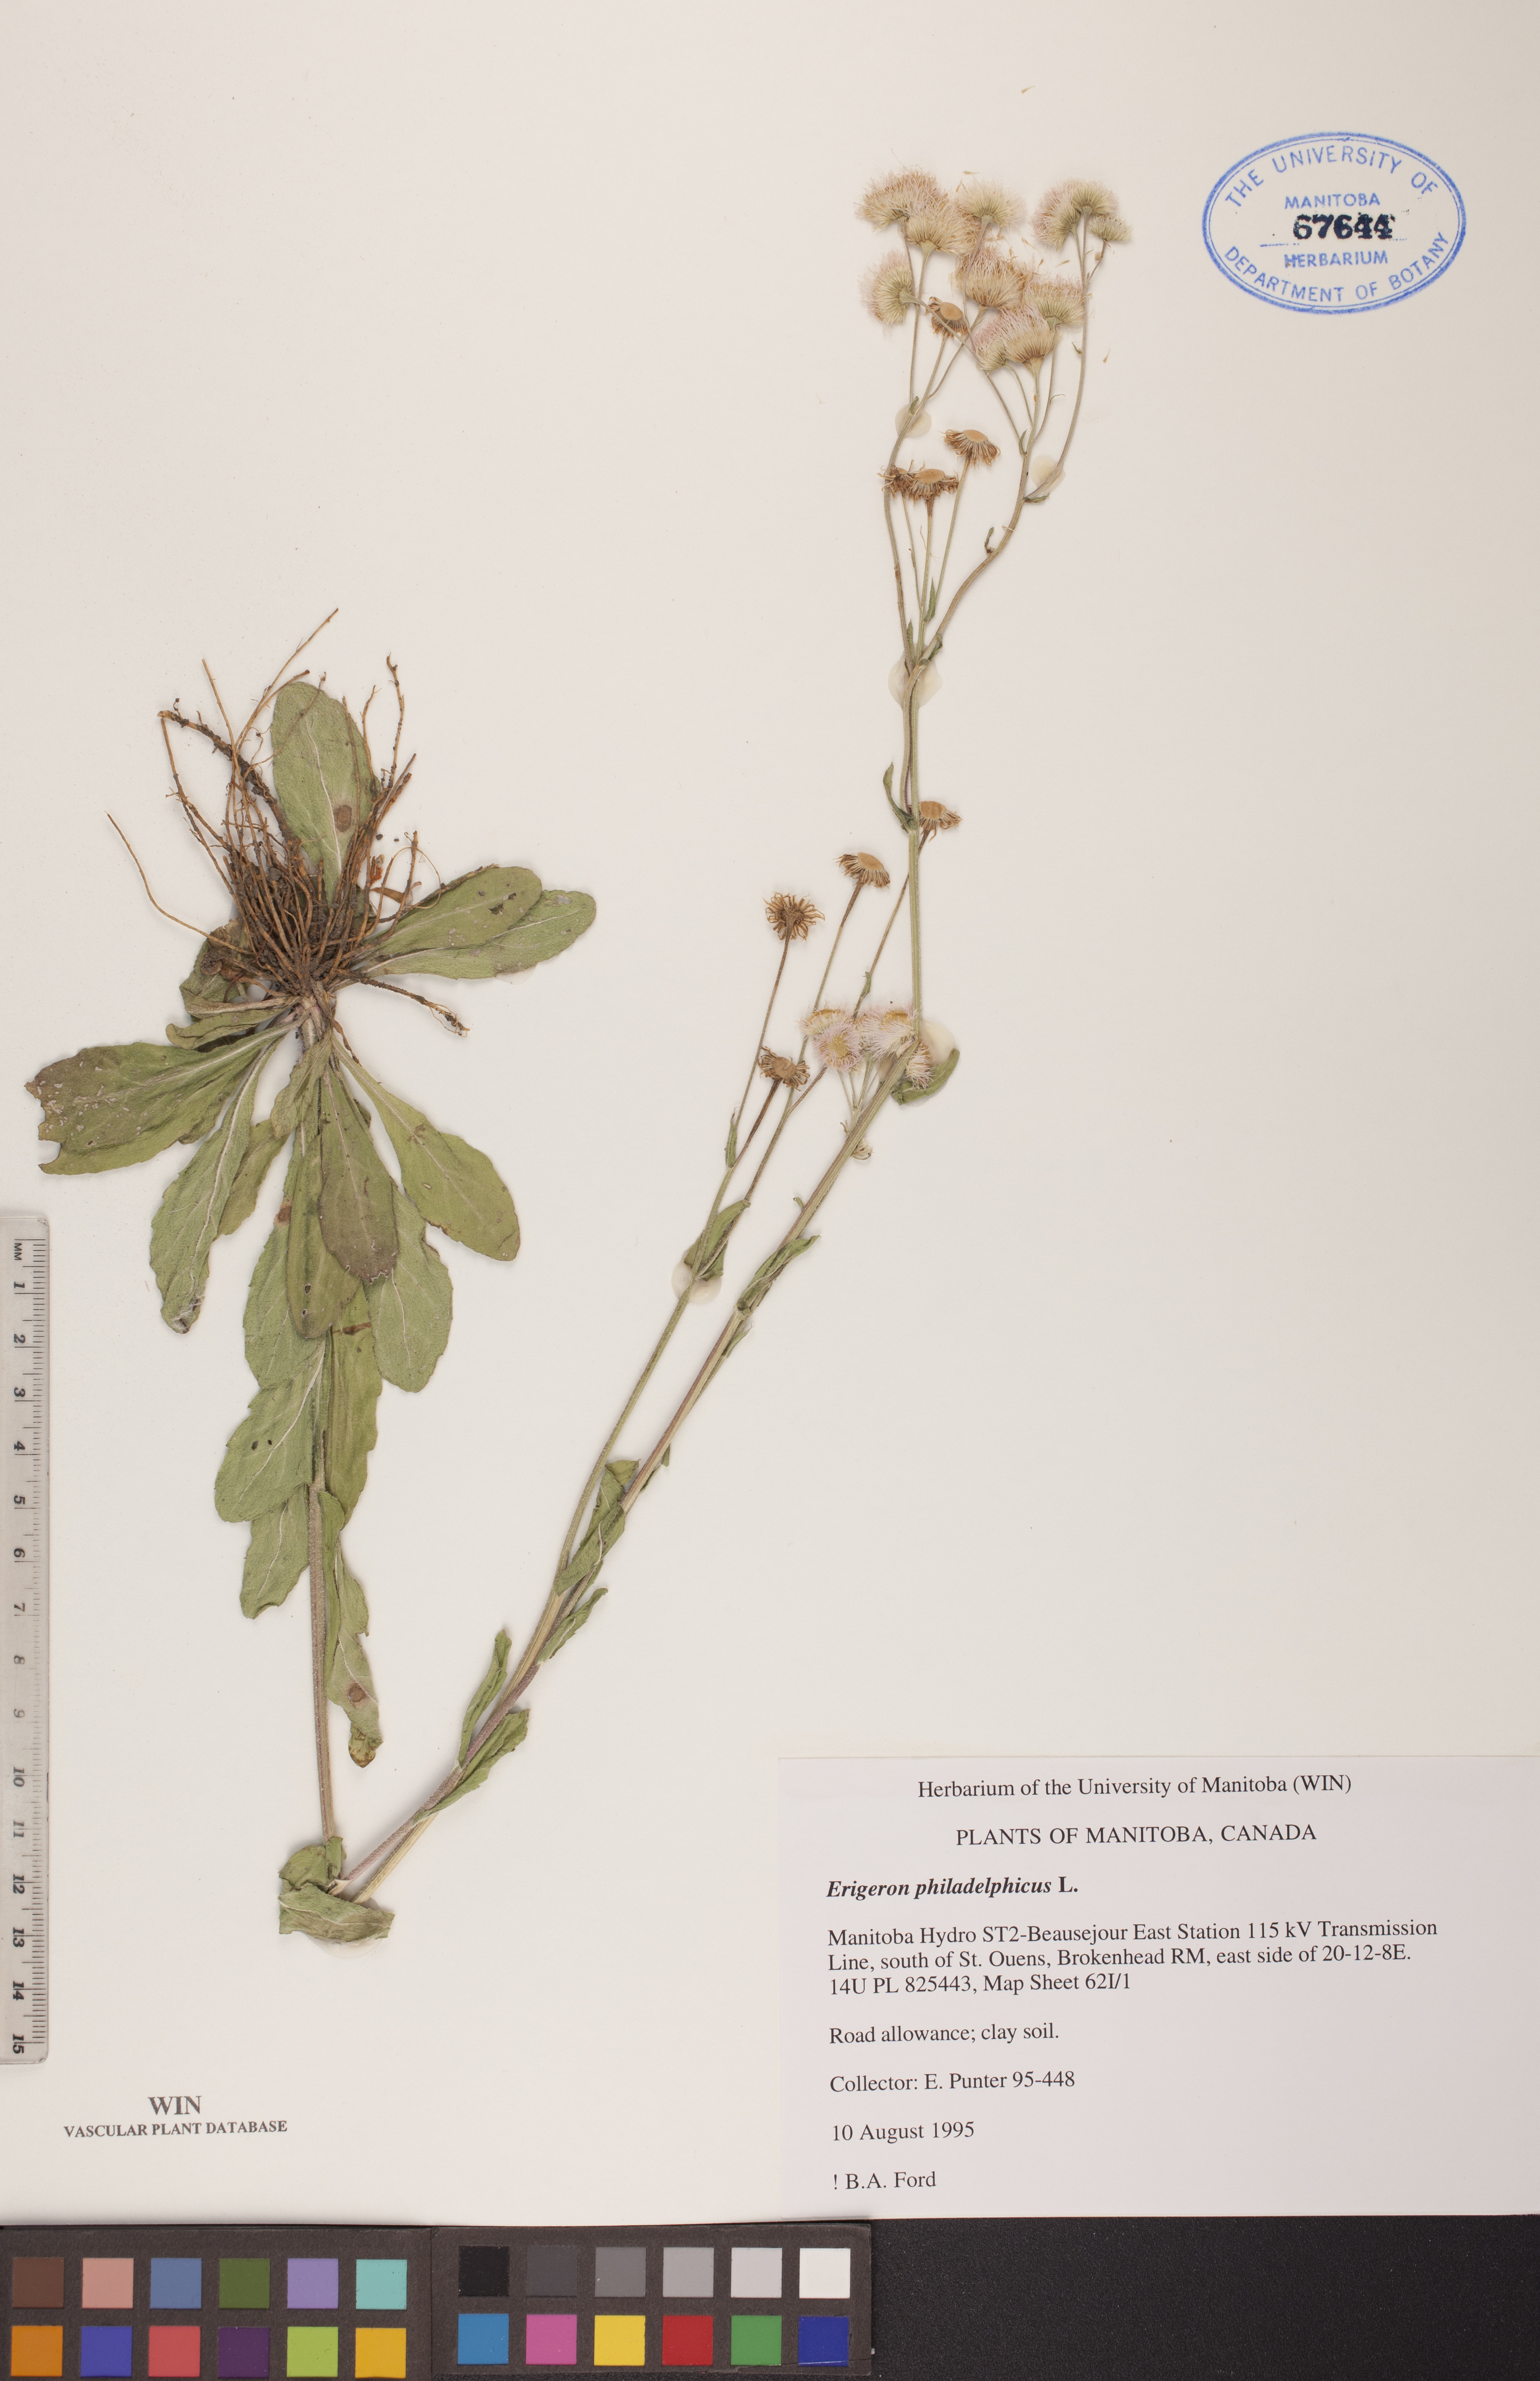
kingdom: Plantae
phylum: Tracheophyta
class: Magnoliopsida
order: Asterales
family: Asteraceae
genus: Erigeron
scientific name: Erigeron philadelphicus
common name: Robin's-plantain
